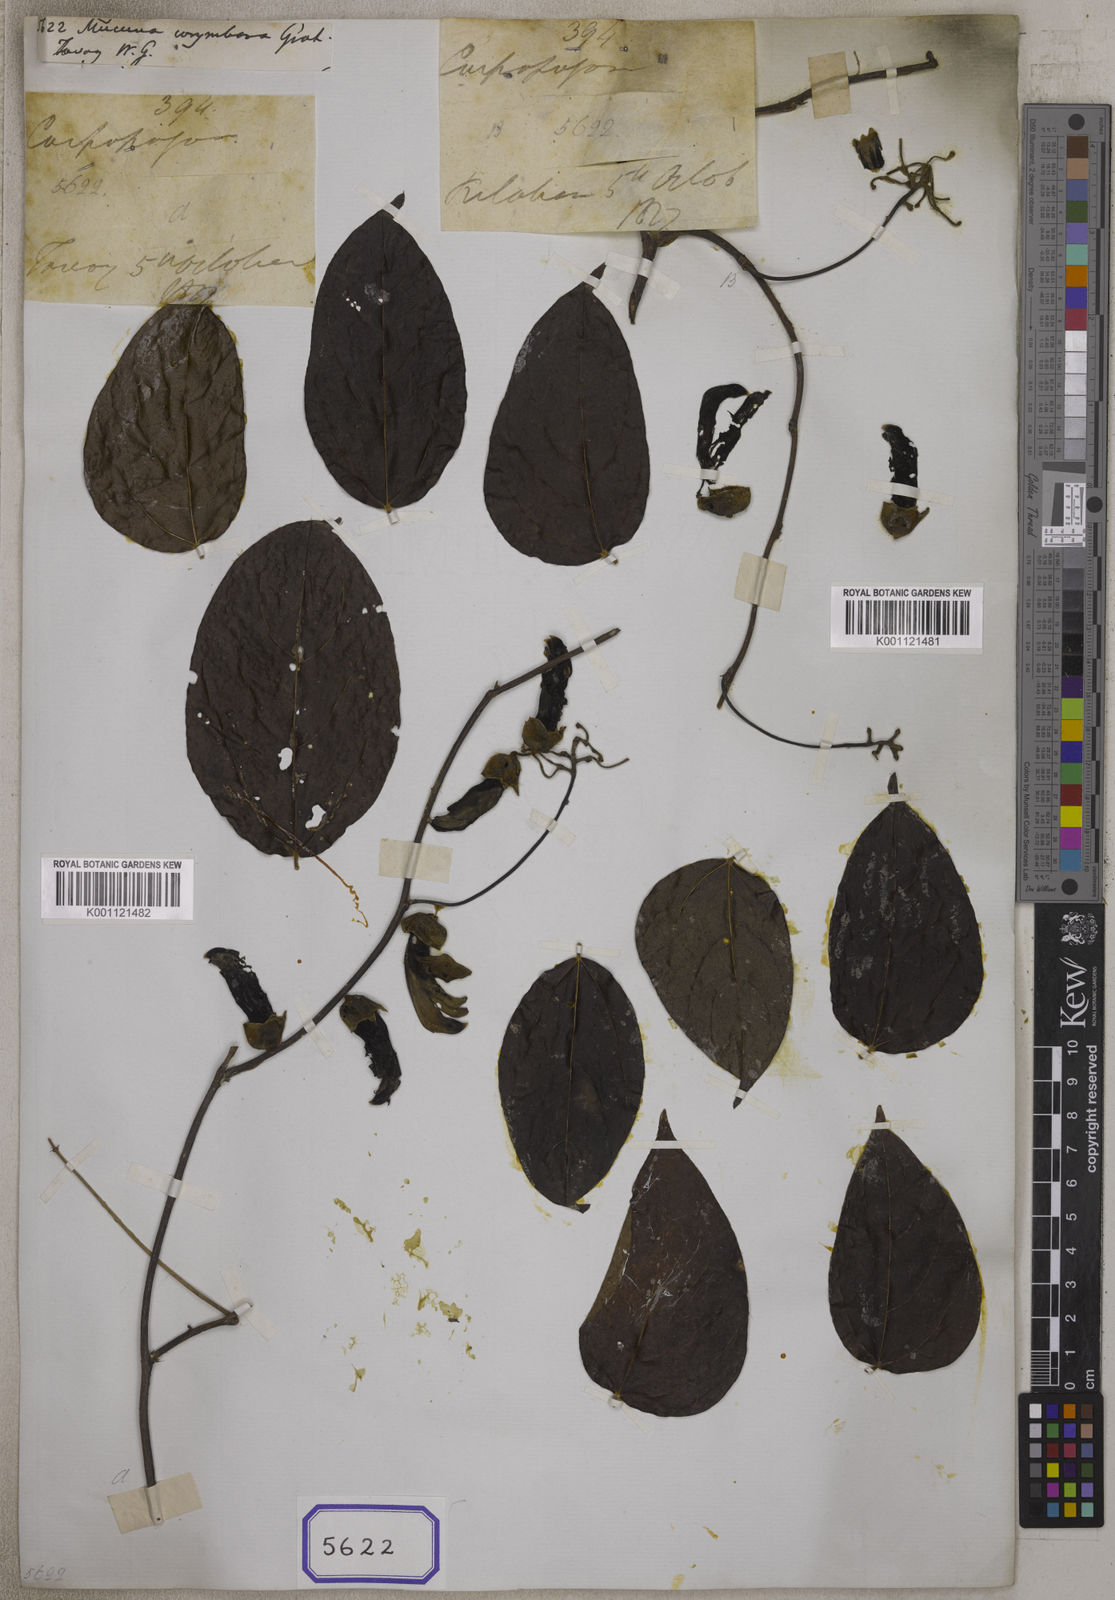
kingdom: Plantae
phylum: Tracheophyta
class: Magnoliopsida
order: Fabales
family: Fabaceae
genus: Mucuna
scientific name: Mucuna monosperma
